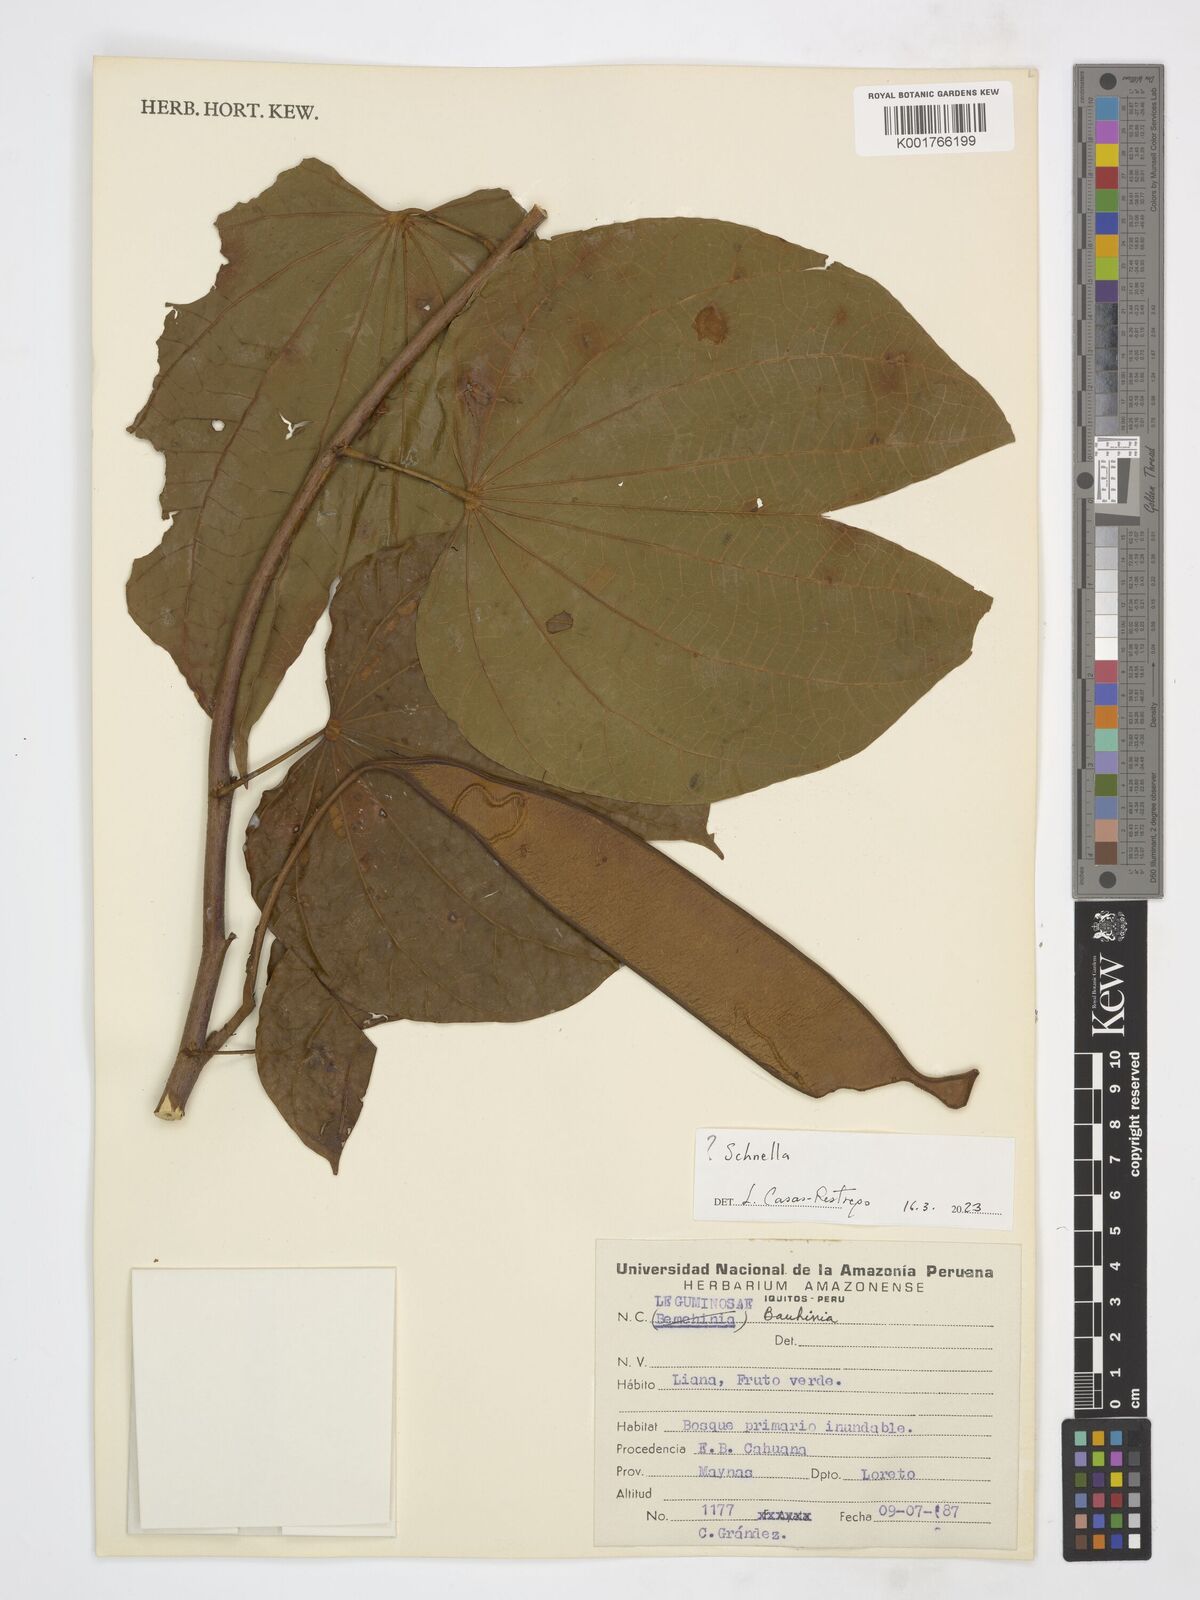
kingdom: Plantae
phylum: Tracheophyta
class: Magnoliopsida
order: Fabales
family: Fabaceae
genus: Schnella
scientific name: Schnella
